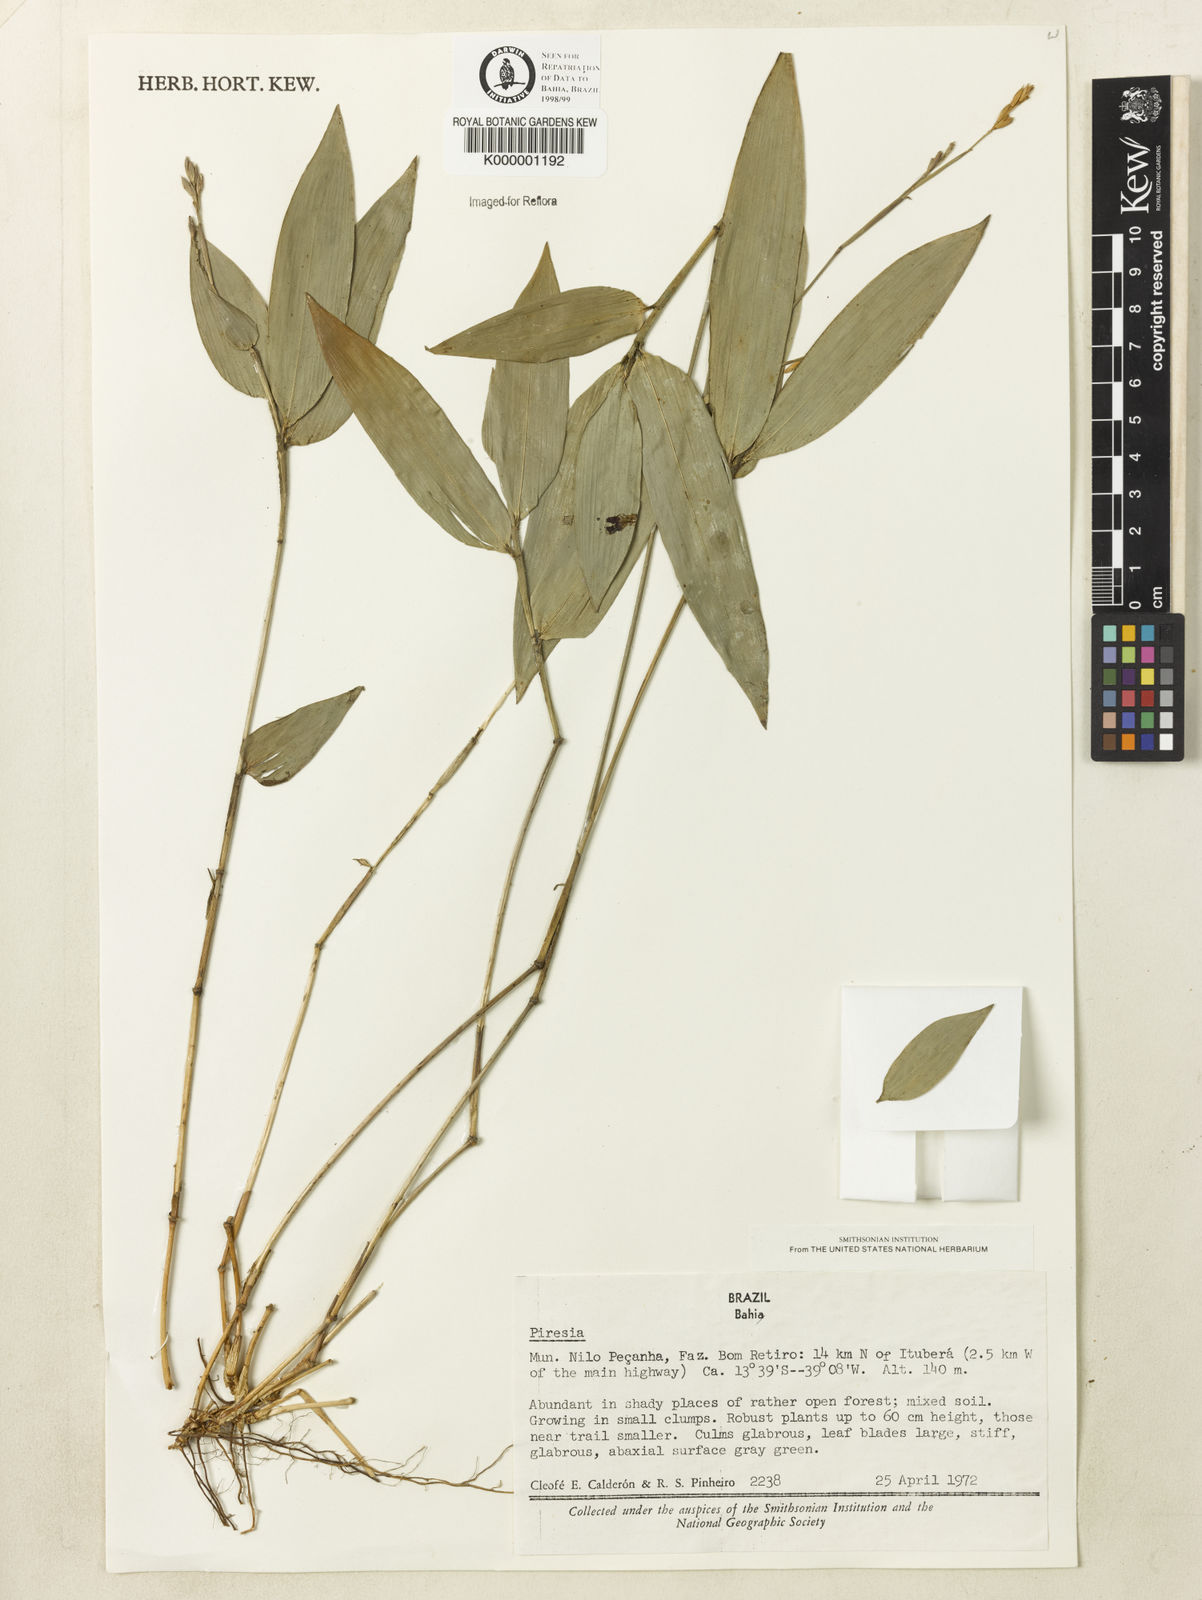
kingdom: Plantae
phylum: Tracheophyta
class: Liliopsida
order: Poales
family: Poaceae
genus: Piresia
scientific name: Piresia
